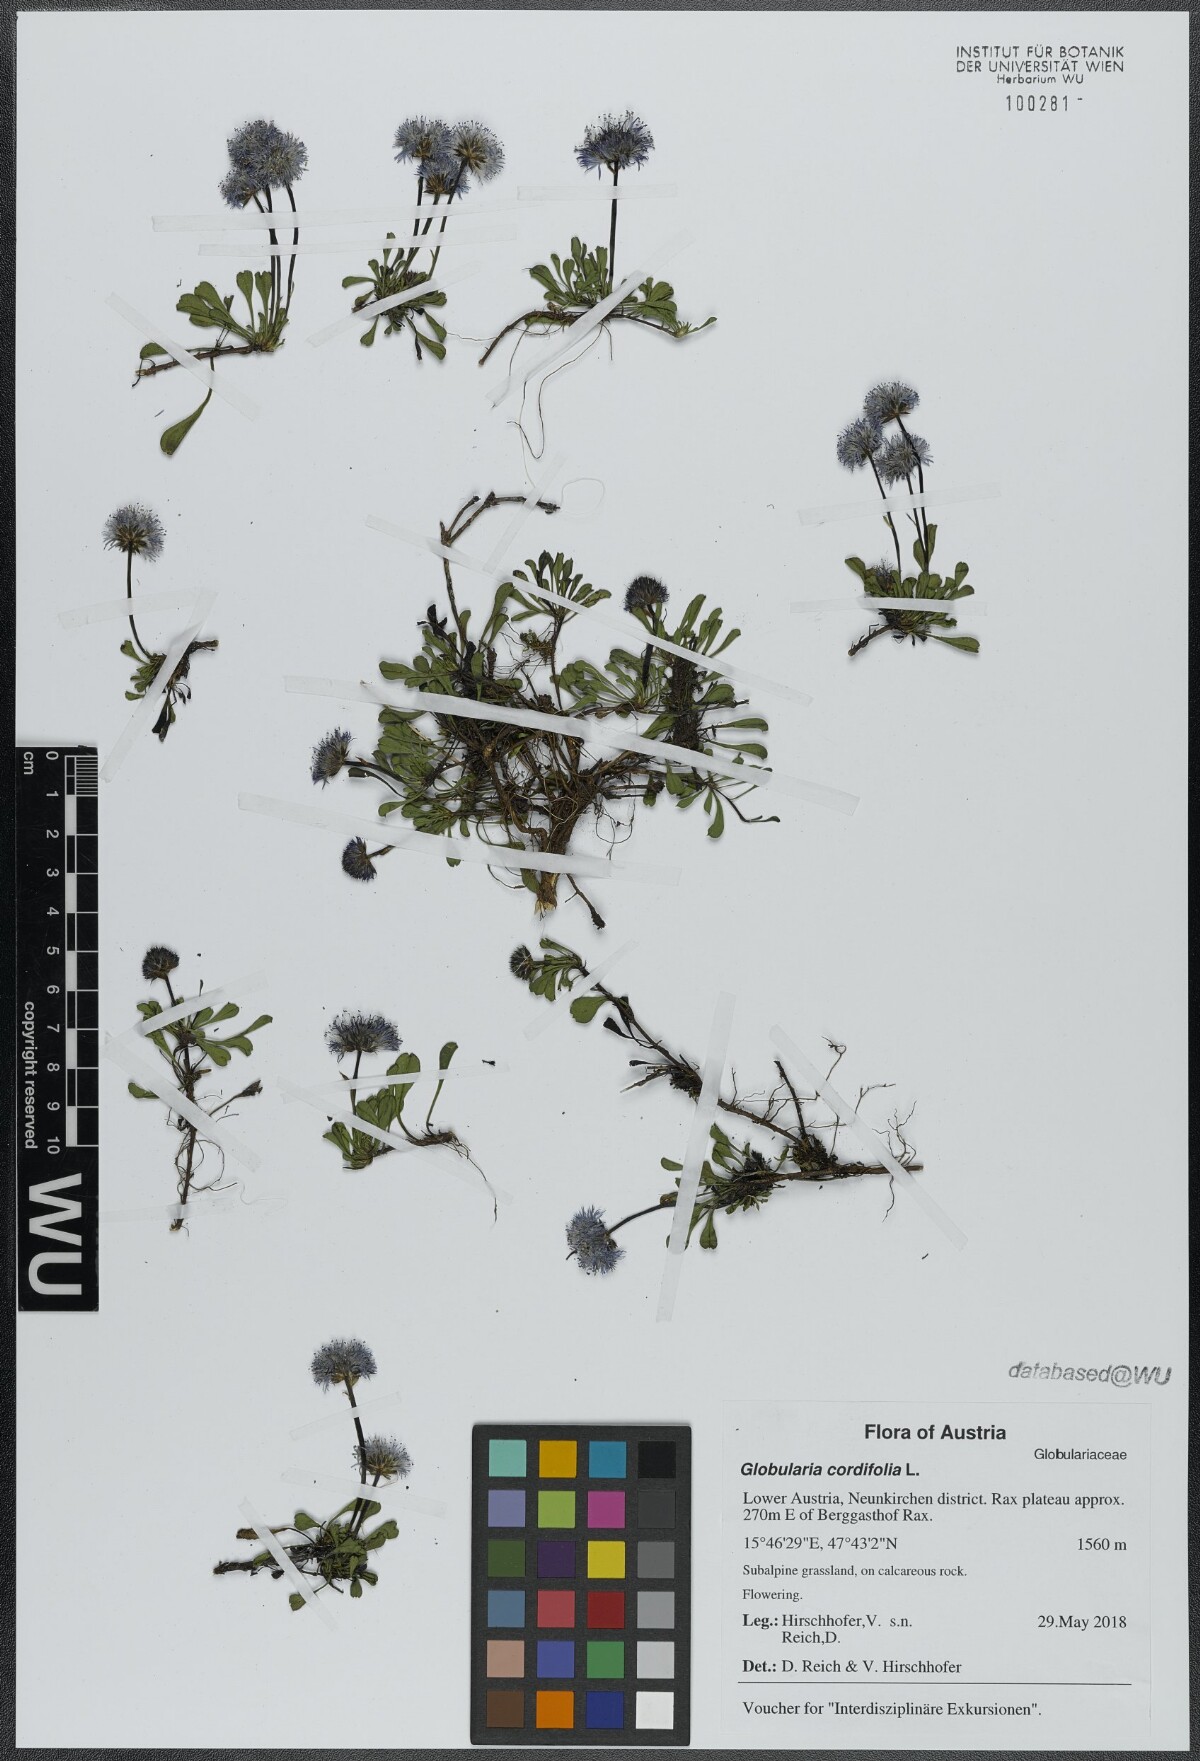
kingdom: Plantae
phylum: Tracheophyta
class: Magnoliopsida
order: Lamiales
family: Plantaginaceae
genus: Globularia
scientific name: Globularia cordifolia
